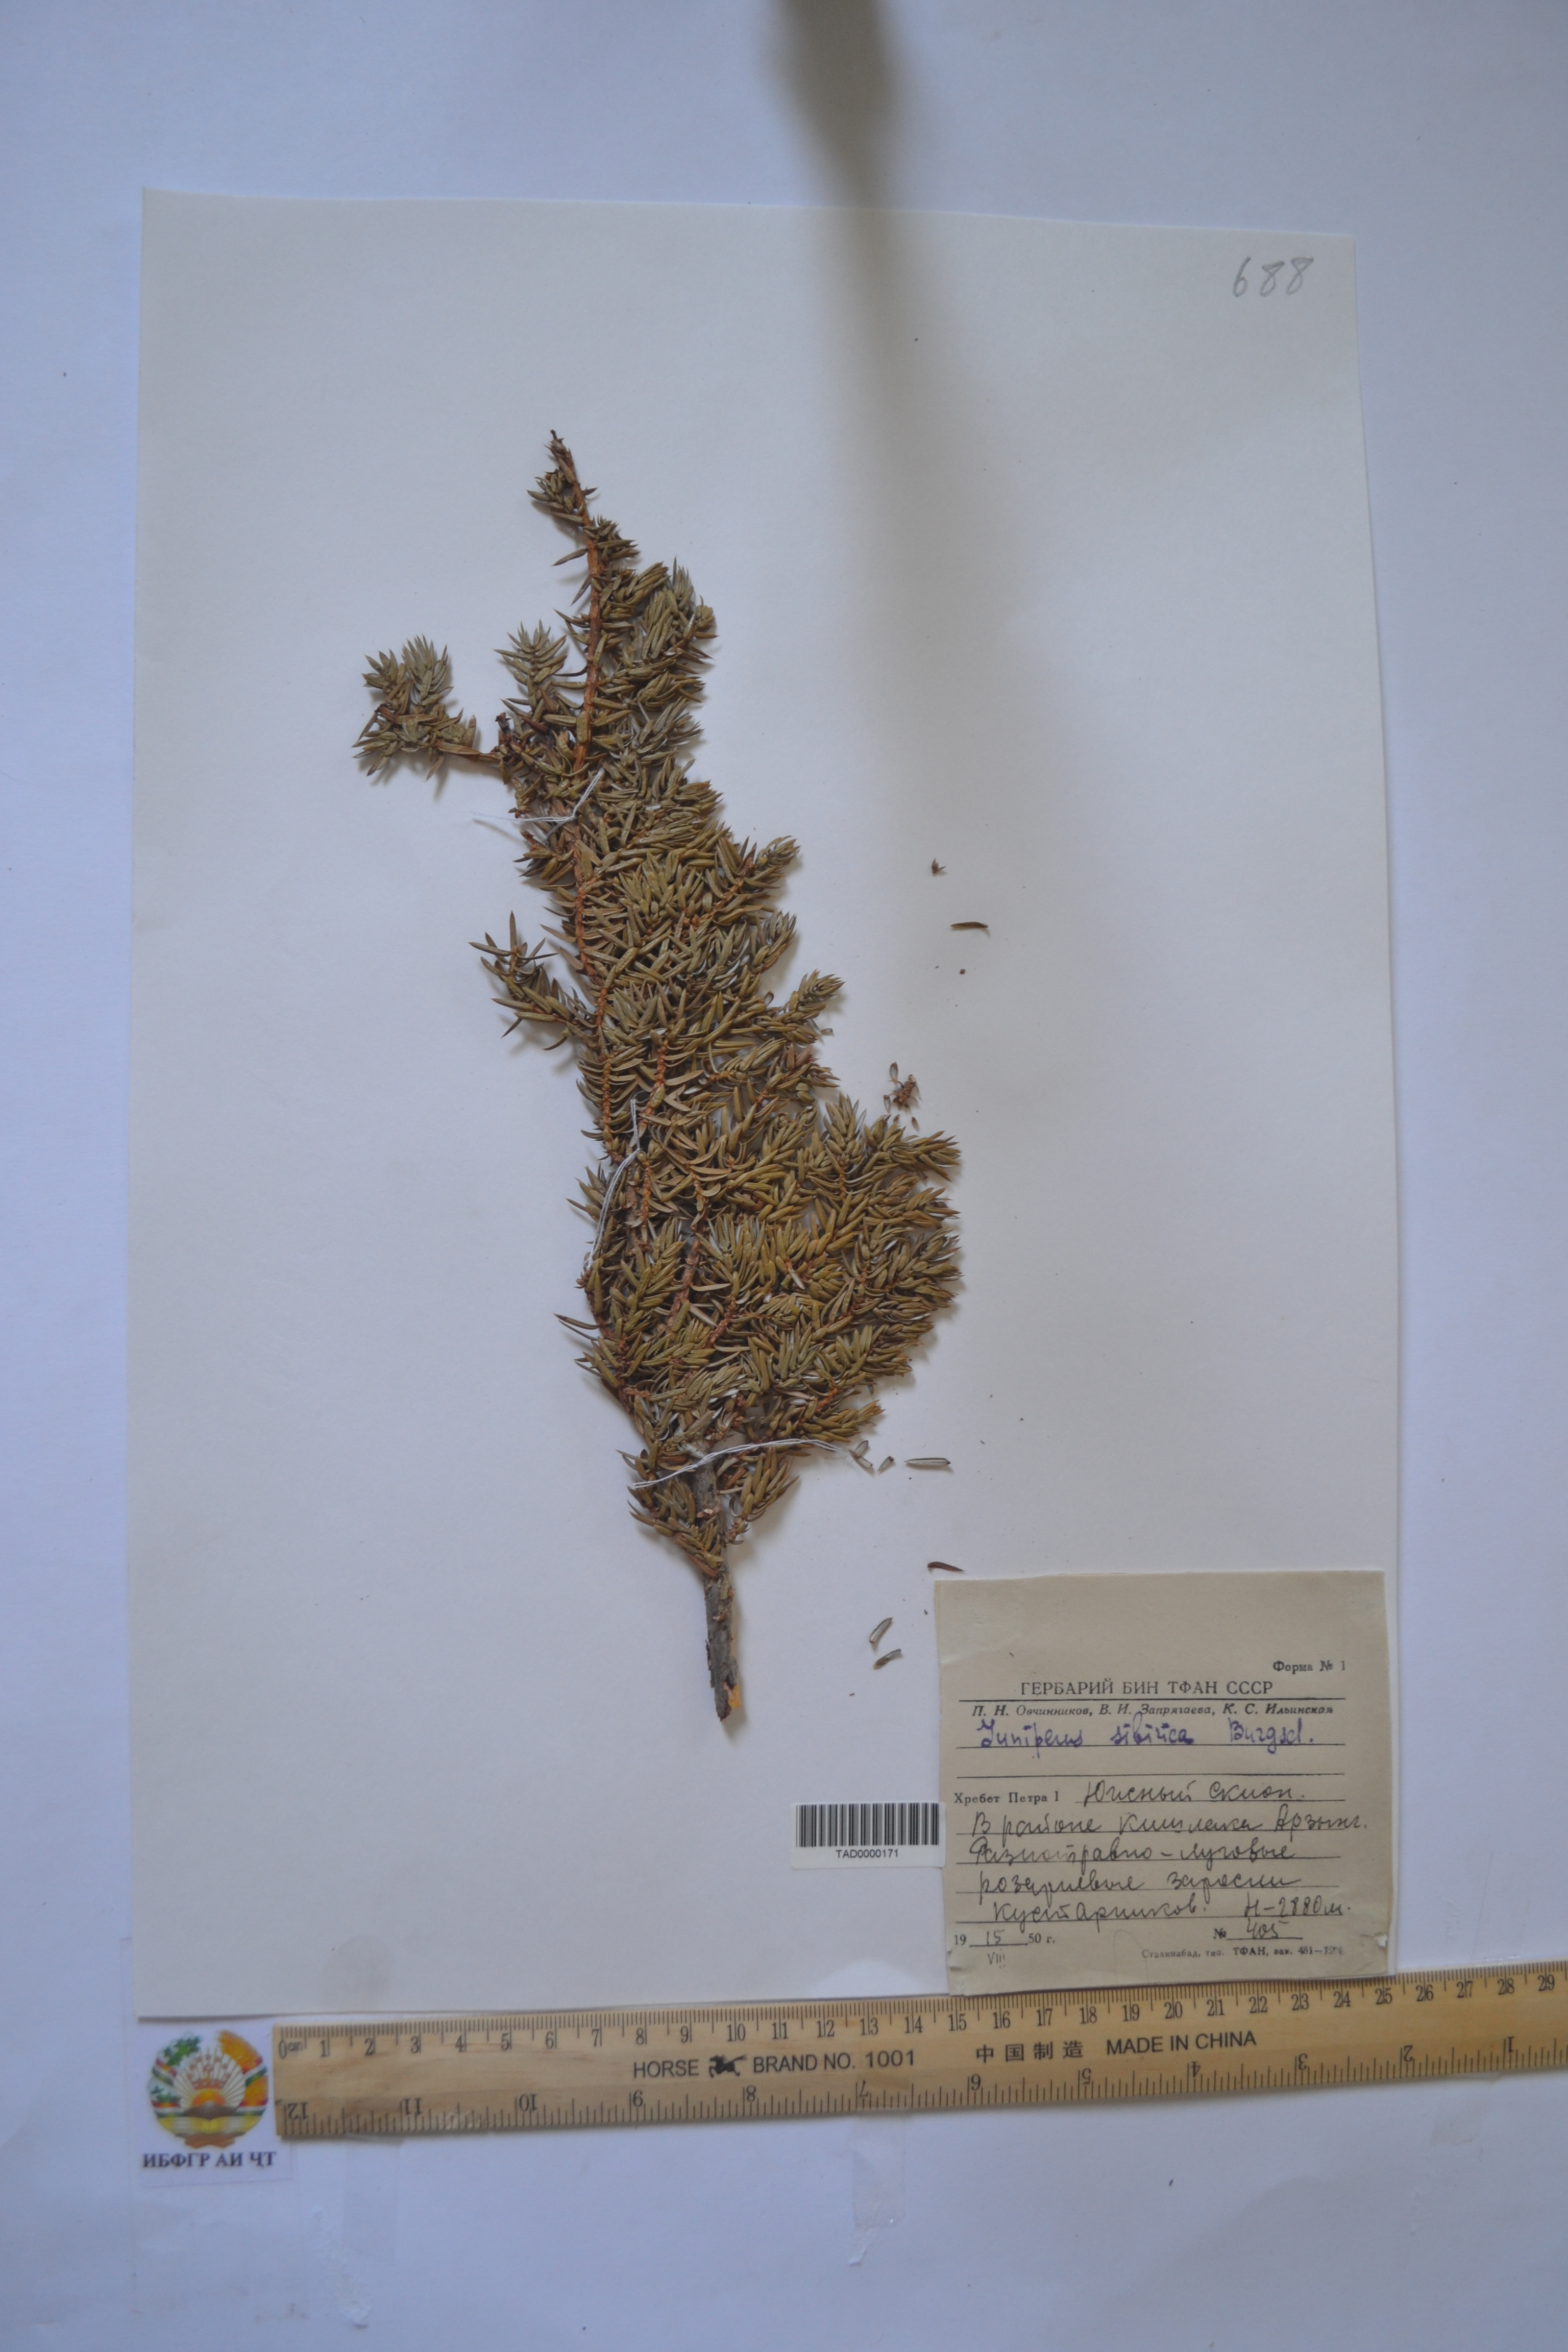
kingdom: Plantae
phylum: Tracheophyta
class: Pinopsida
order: Pinales
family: Cupressaceae
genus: Juniperus
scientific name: Juniperus communis
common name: Common juniper
